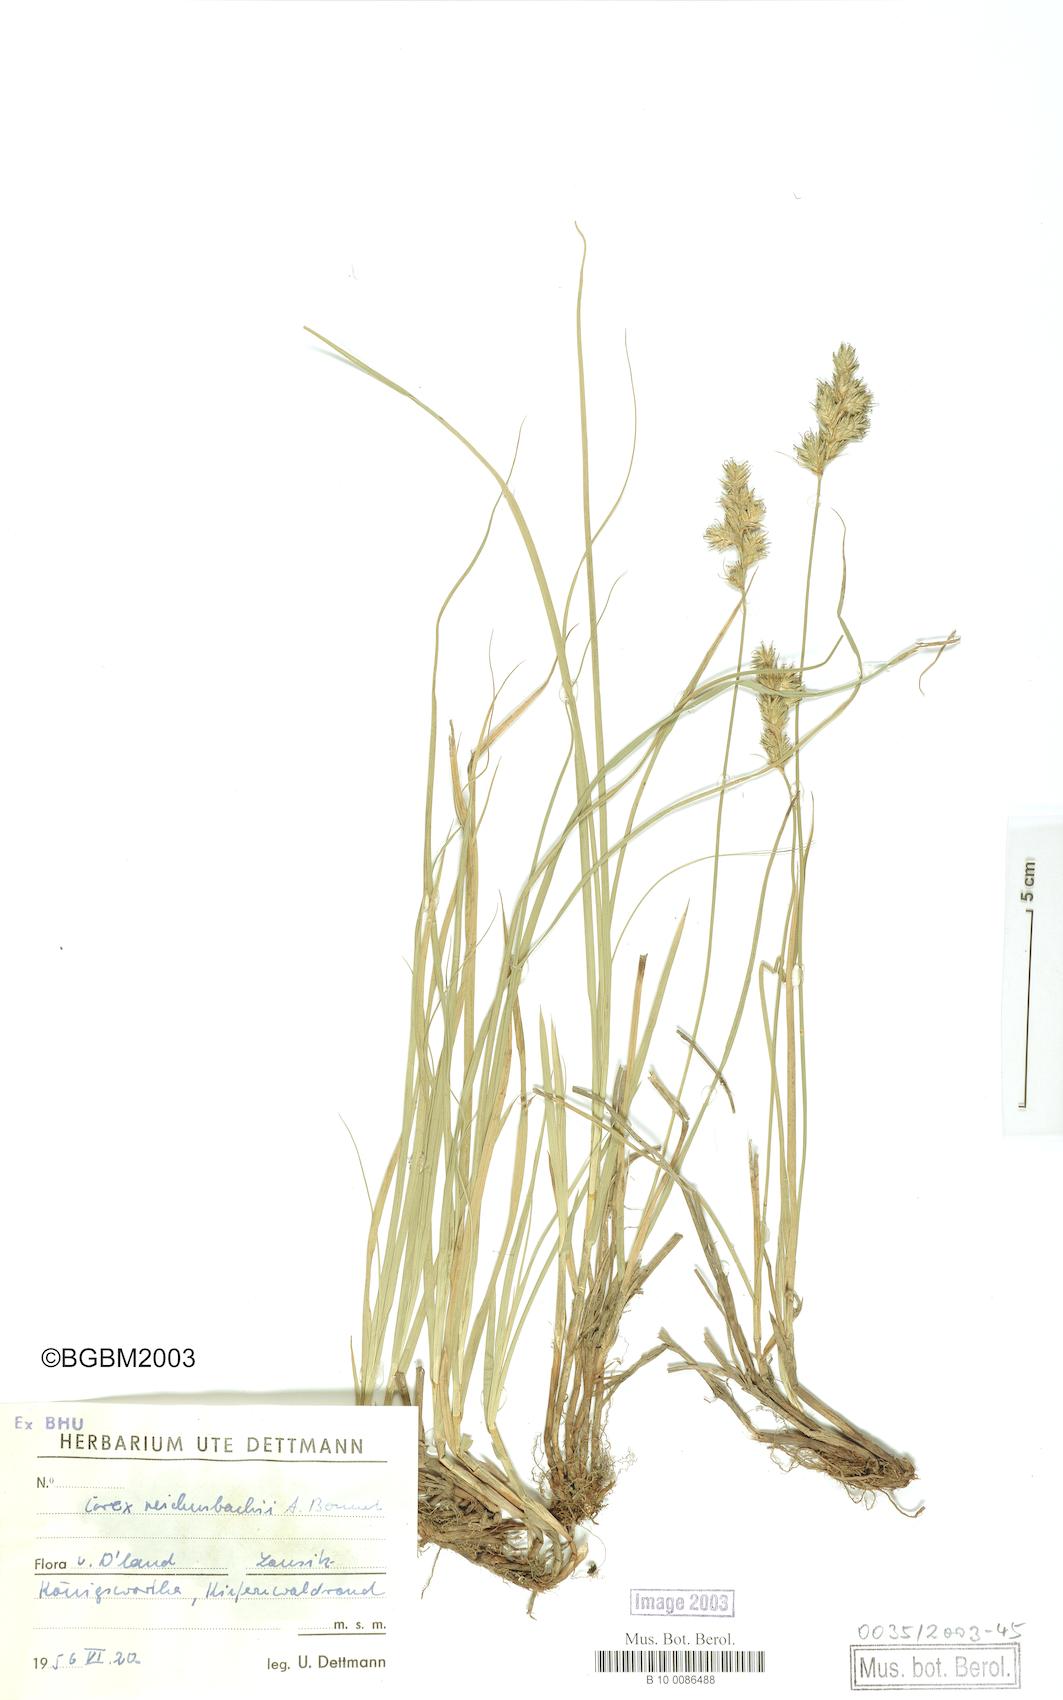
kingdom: Plantae
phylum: Tracheophyta
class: Liliopsida
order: Poales
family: Cyperaceae
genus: Carex
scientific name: Carex reichenbachii
